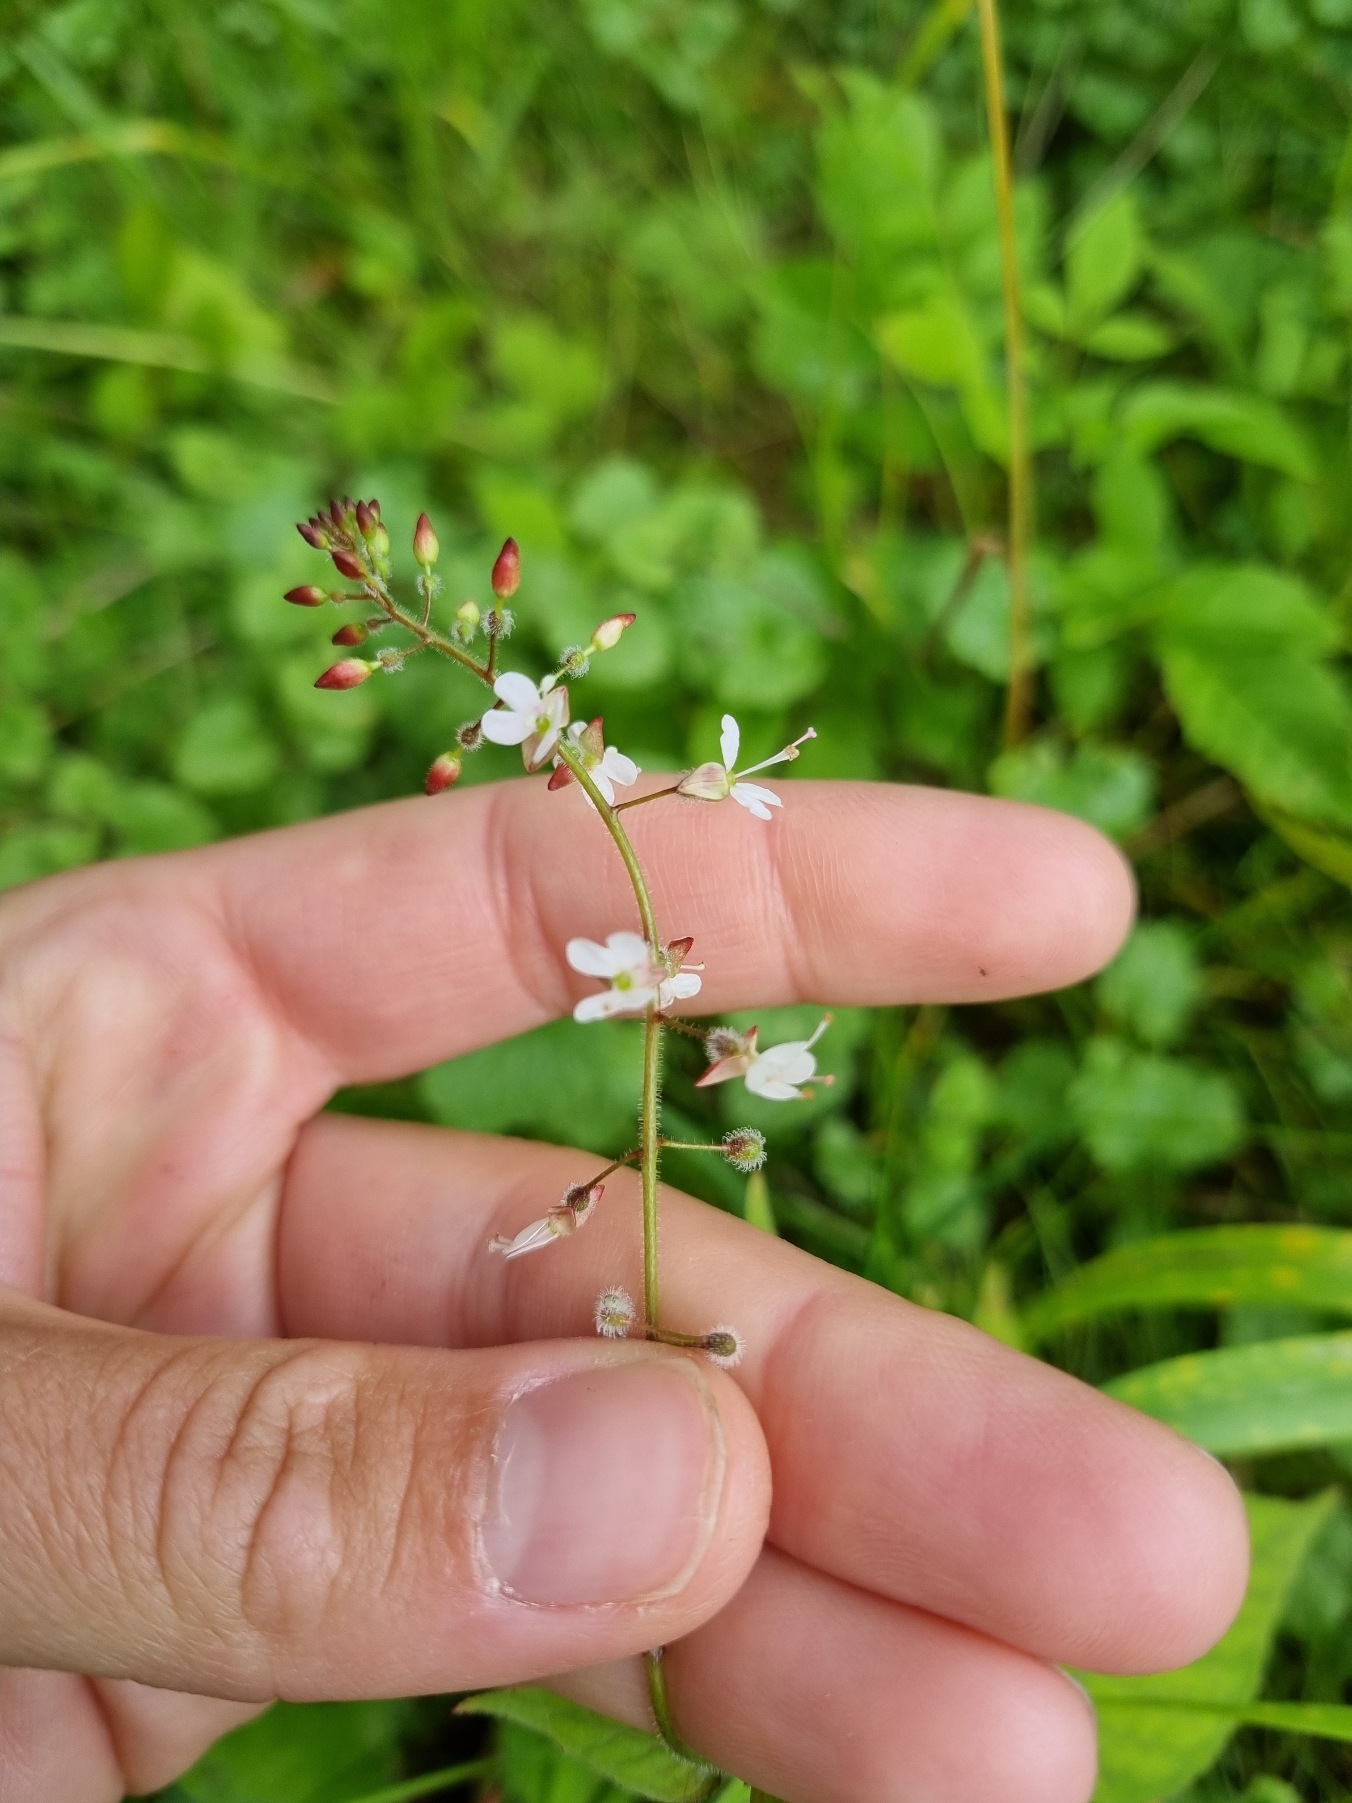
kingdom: Plantae
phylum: Tracheophyta
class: Magnoliopsida
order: Myrtales
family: Onagraceae
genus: Circaea
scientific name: Circaea lutetiana
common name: Dunet steffensurt
